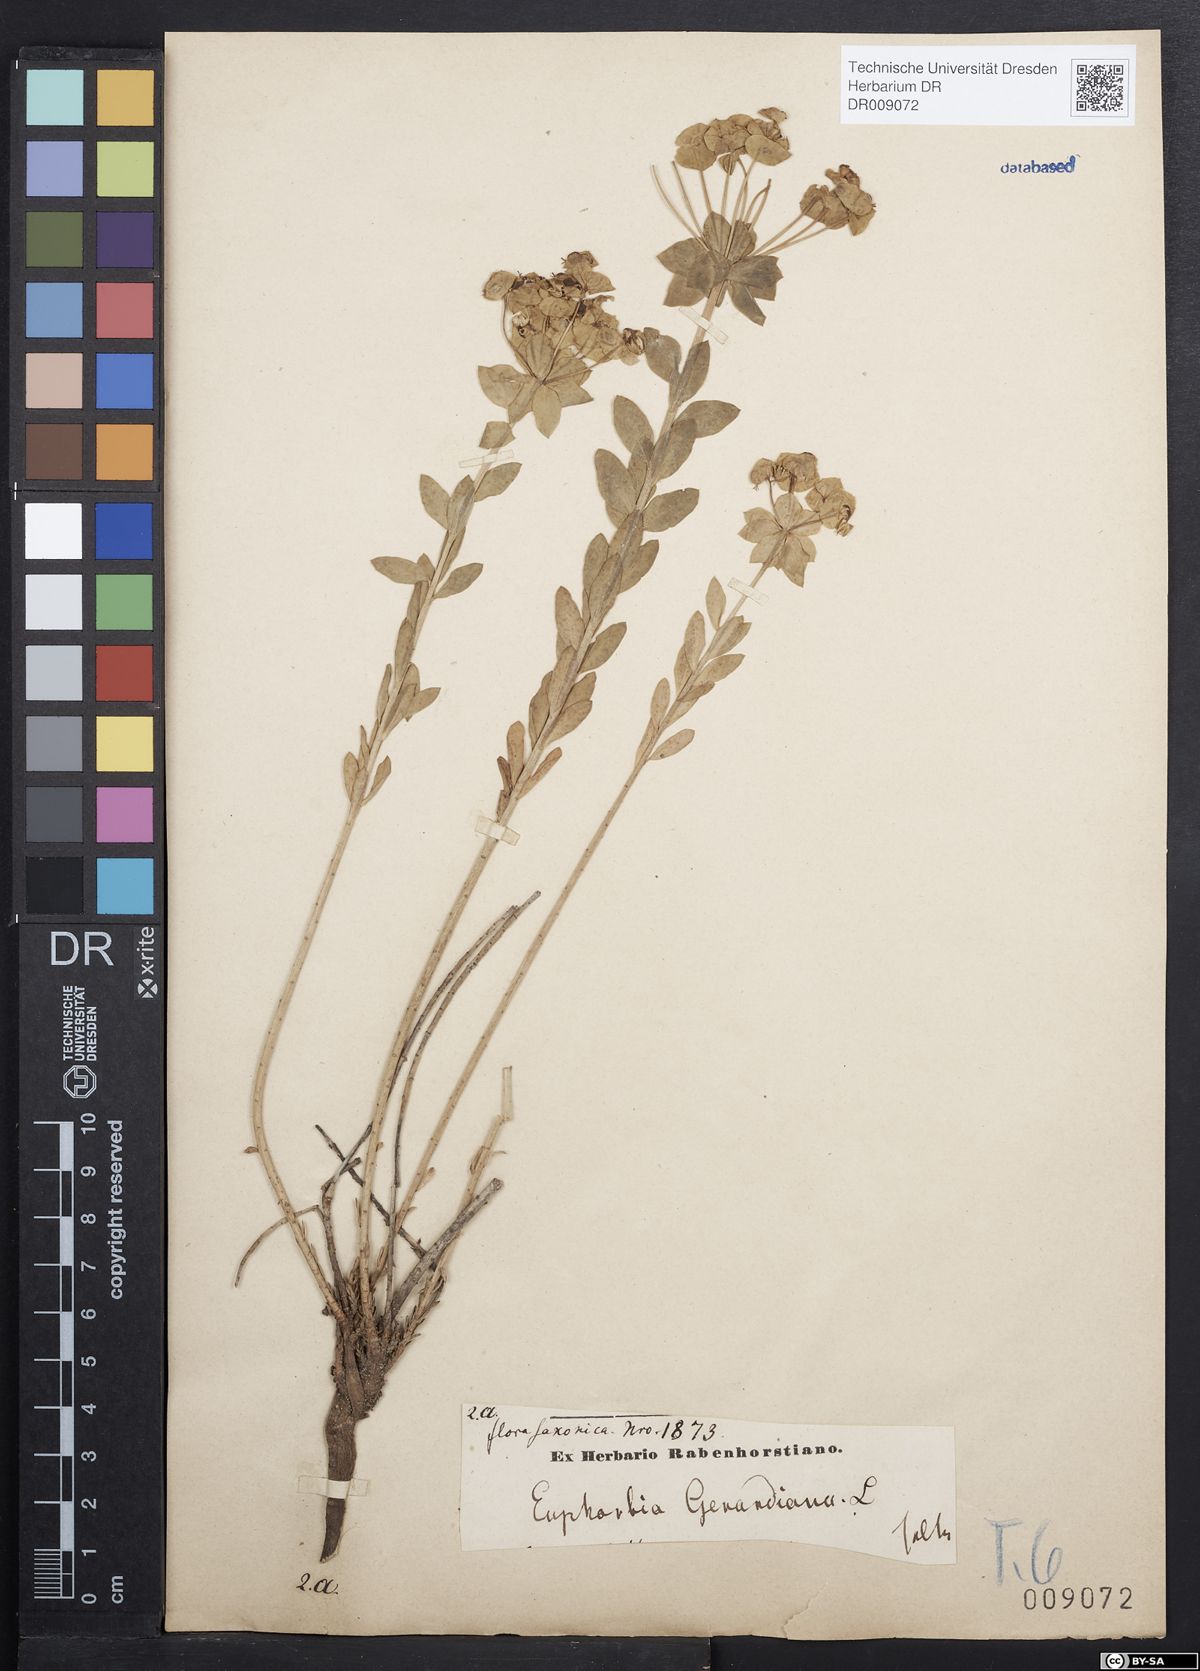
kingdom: Plantae
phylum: Tracheophyta
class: Magnoliopsida
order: Malpighiales
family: Euphorbiaceae
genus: Euphorbia
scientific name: Euphorbia seguieriana
